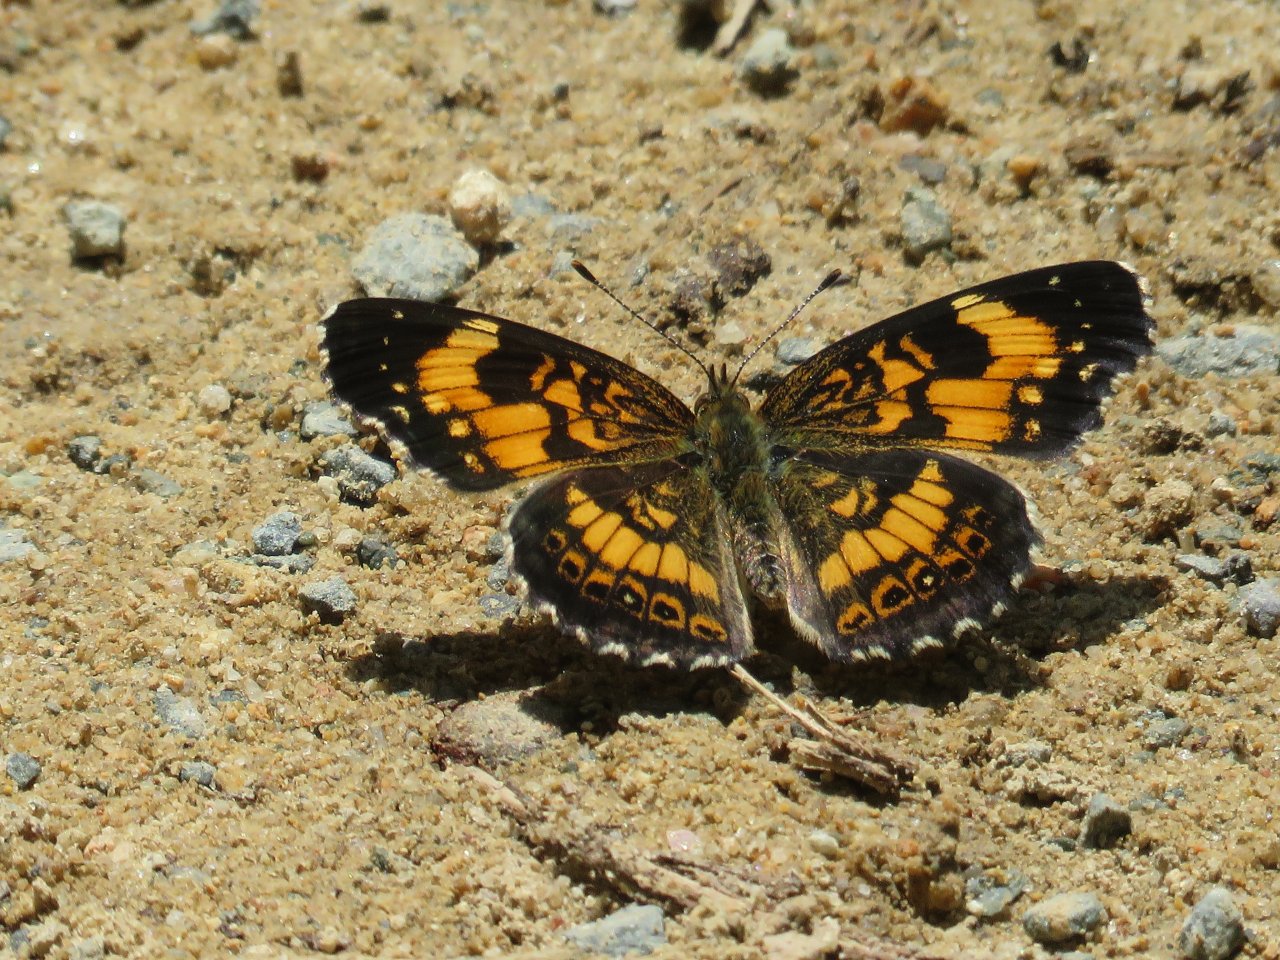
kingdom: Animalia
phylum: Arthropoda
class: Insecta
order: Lepidoptera
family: Nymphalidae
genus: Chlosyne
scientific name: Chlosyne nycteis
